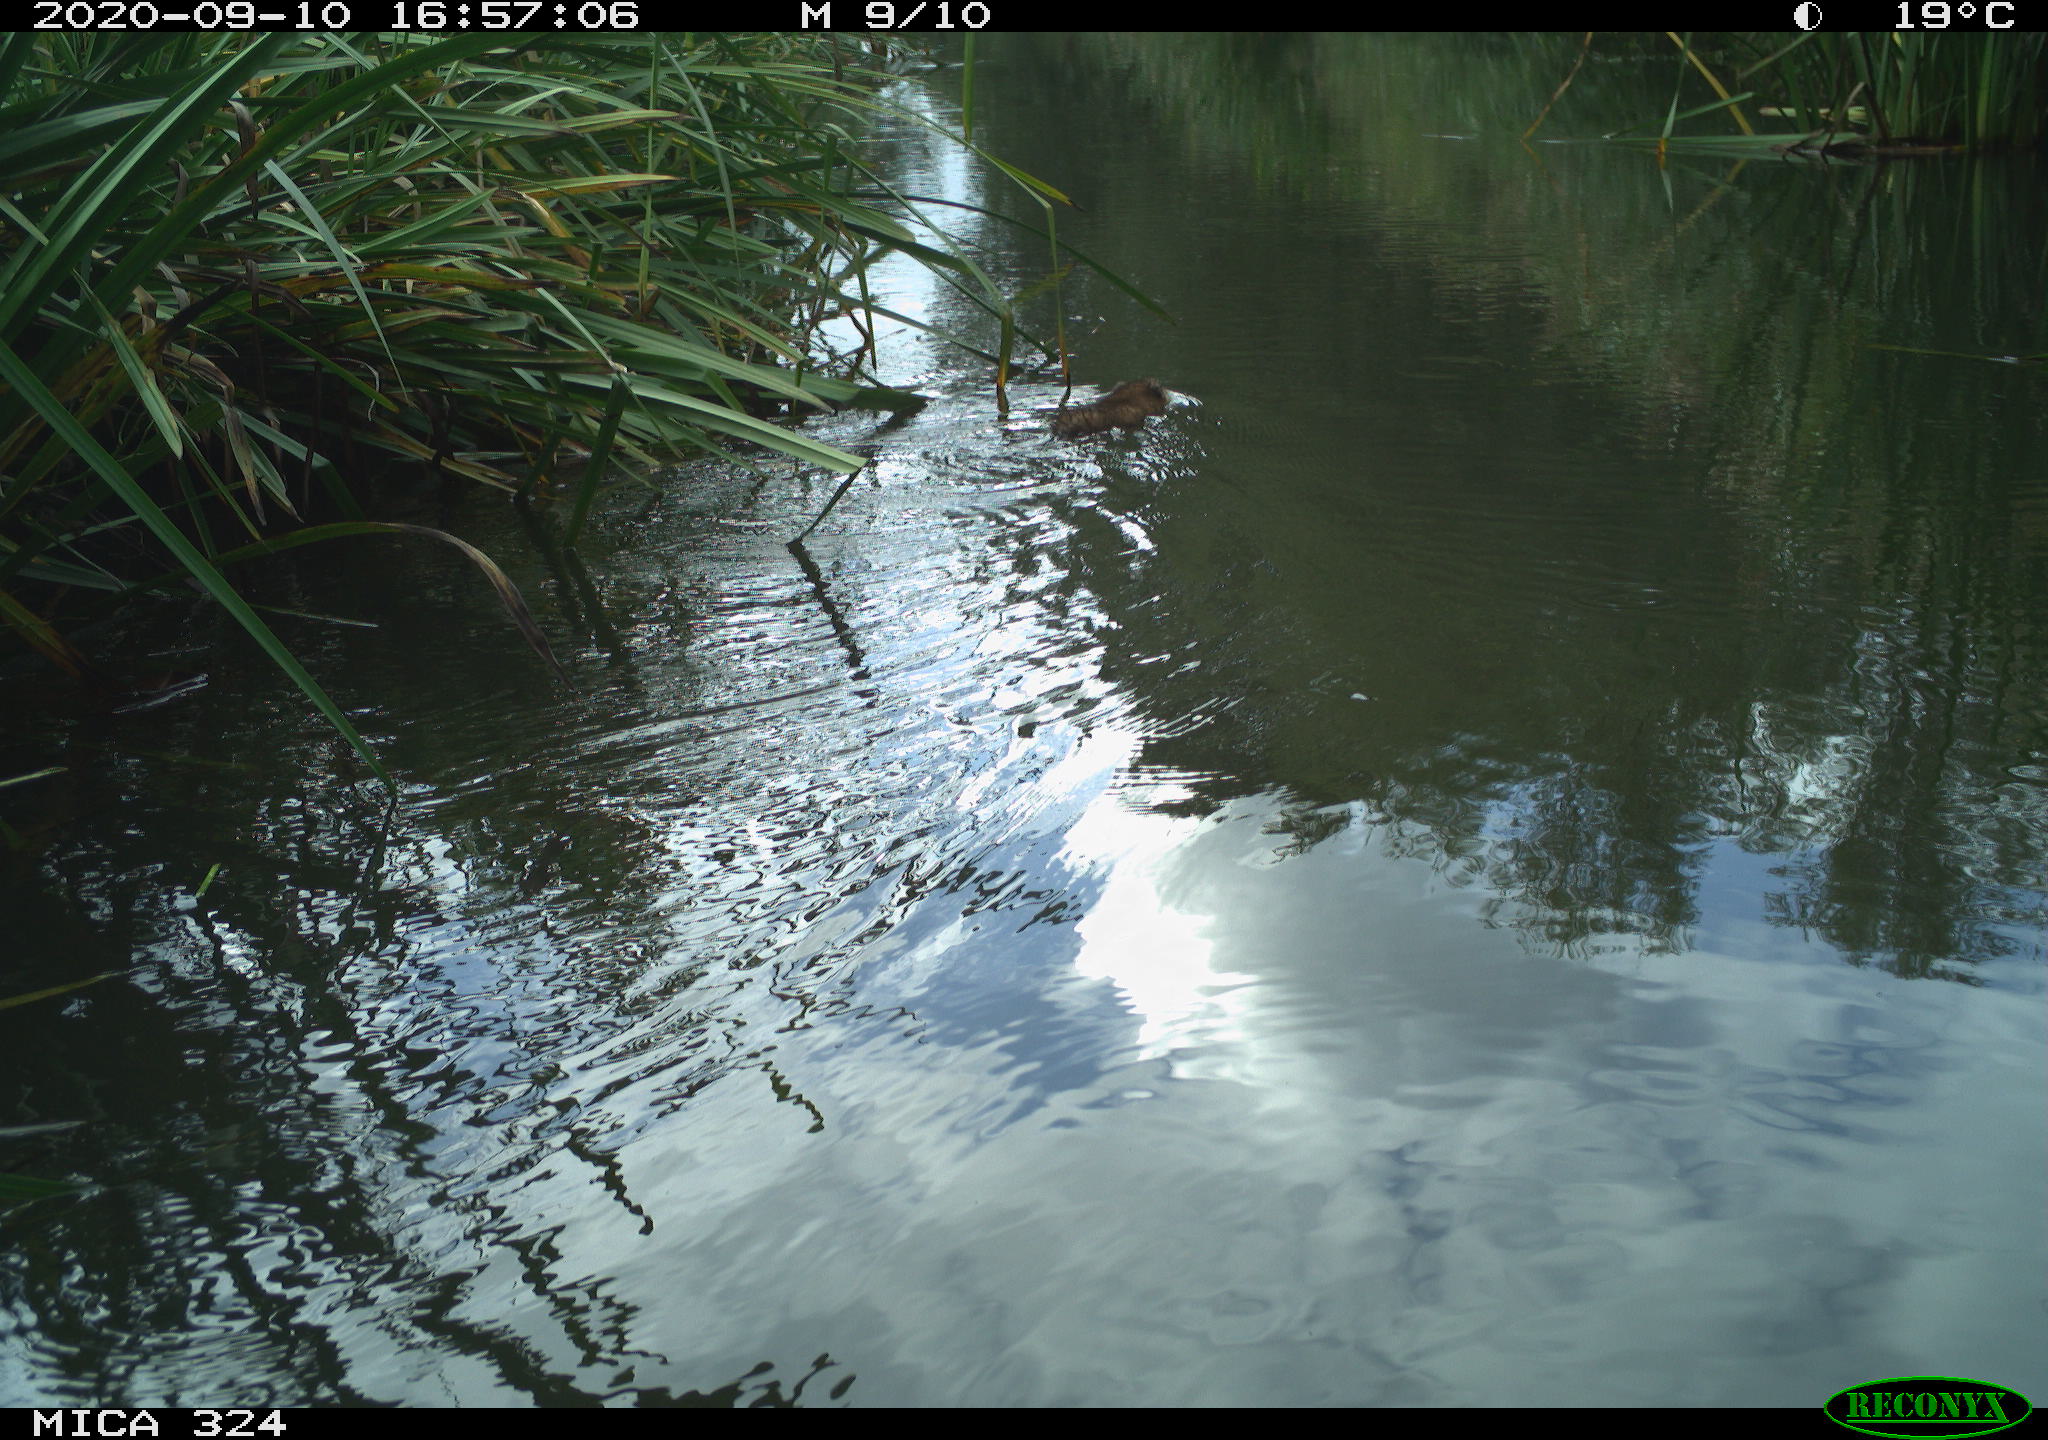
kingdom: Animalia
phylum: Chordata
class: Mammalia
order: Rodentia
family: Cricetidae
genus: Ondatra
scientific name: Ondatra zibethicus
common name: Muskrat
